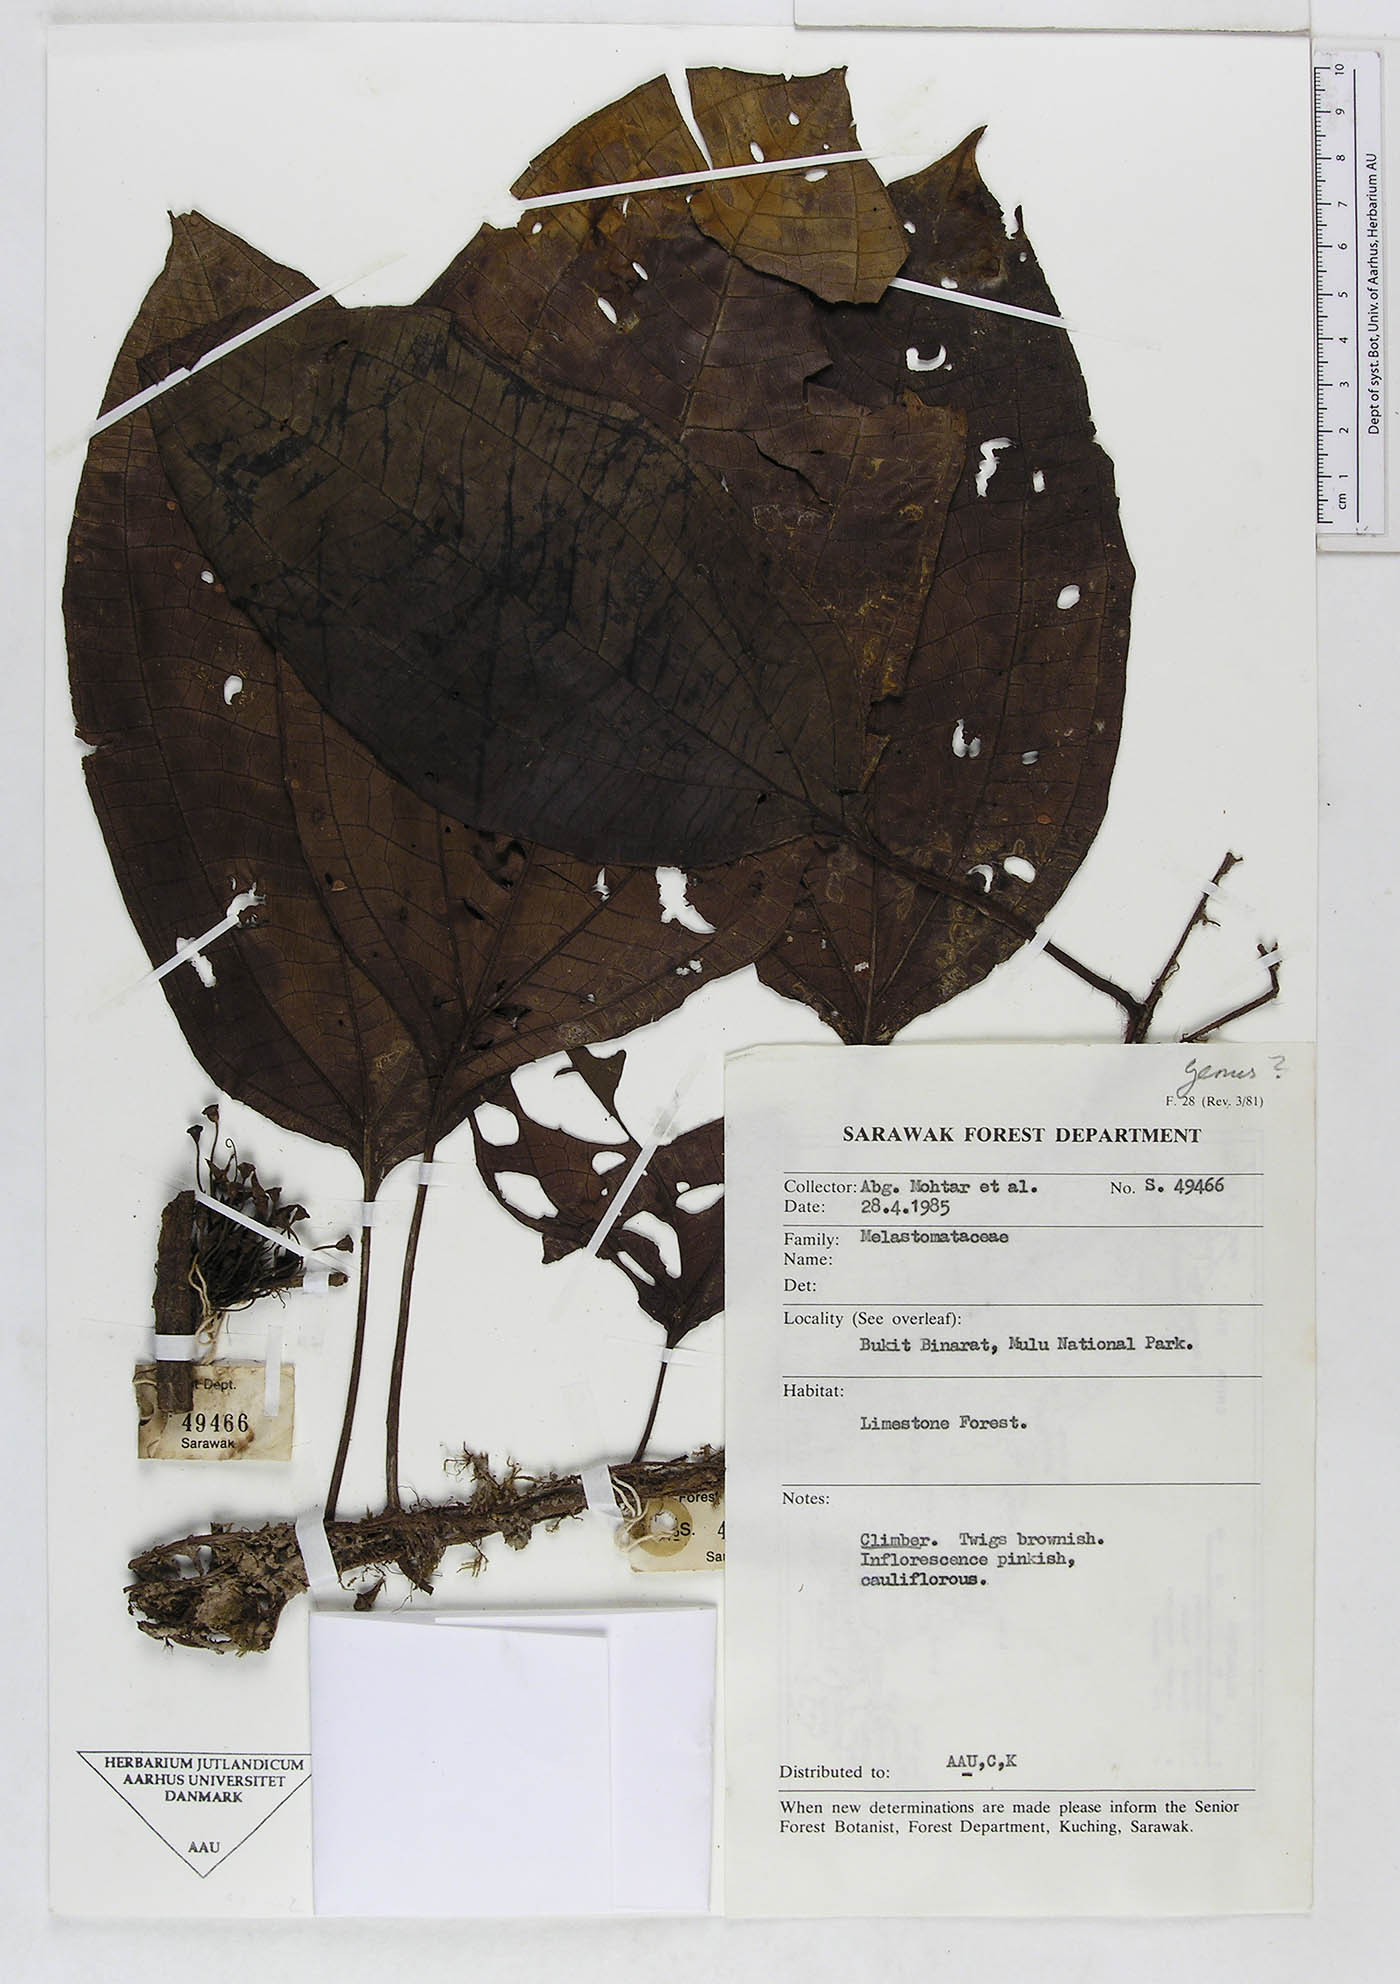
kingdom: Plantae
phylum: Tracheophyta
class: Magnoliopsida
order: Myrtales
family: Melastomataceae
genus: Heteroblemma
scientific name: Heteroblemma alternifolium
